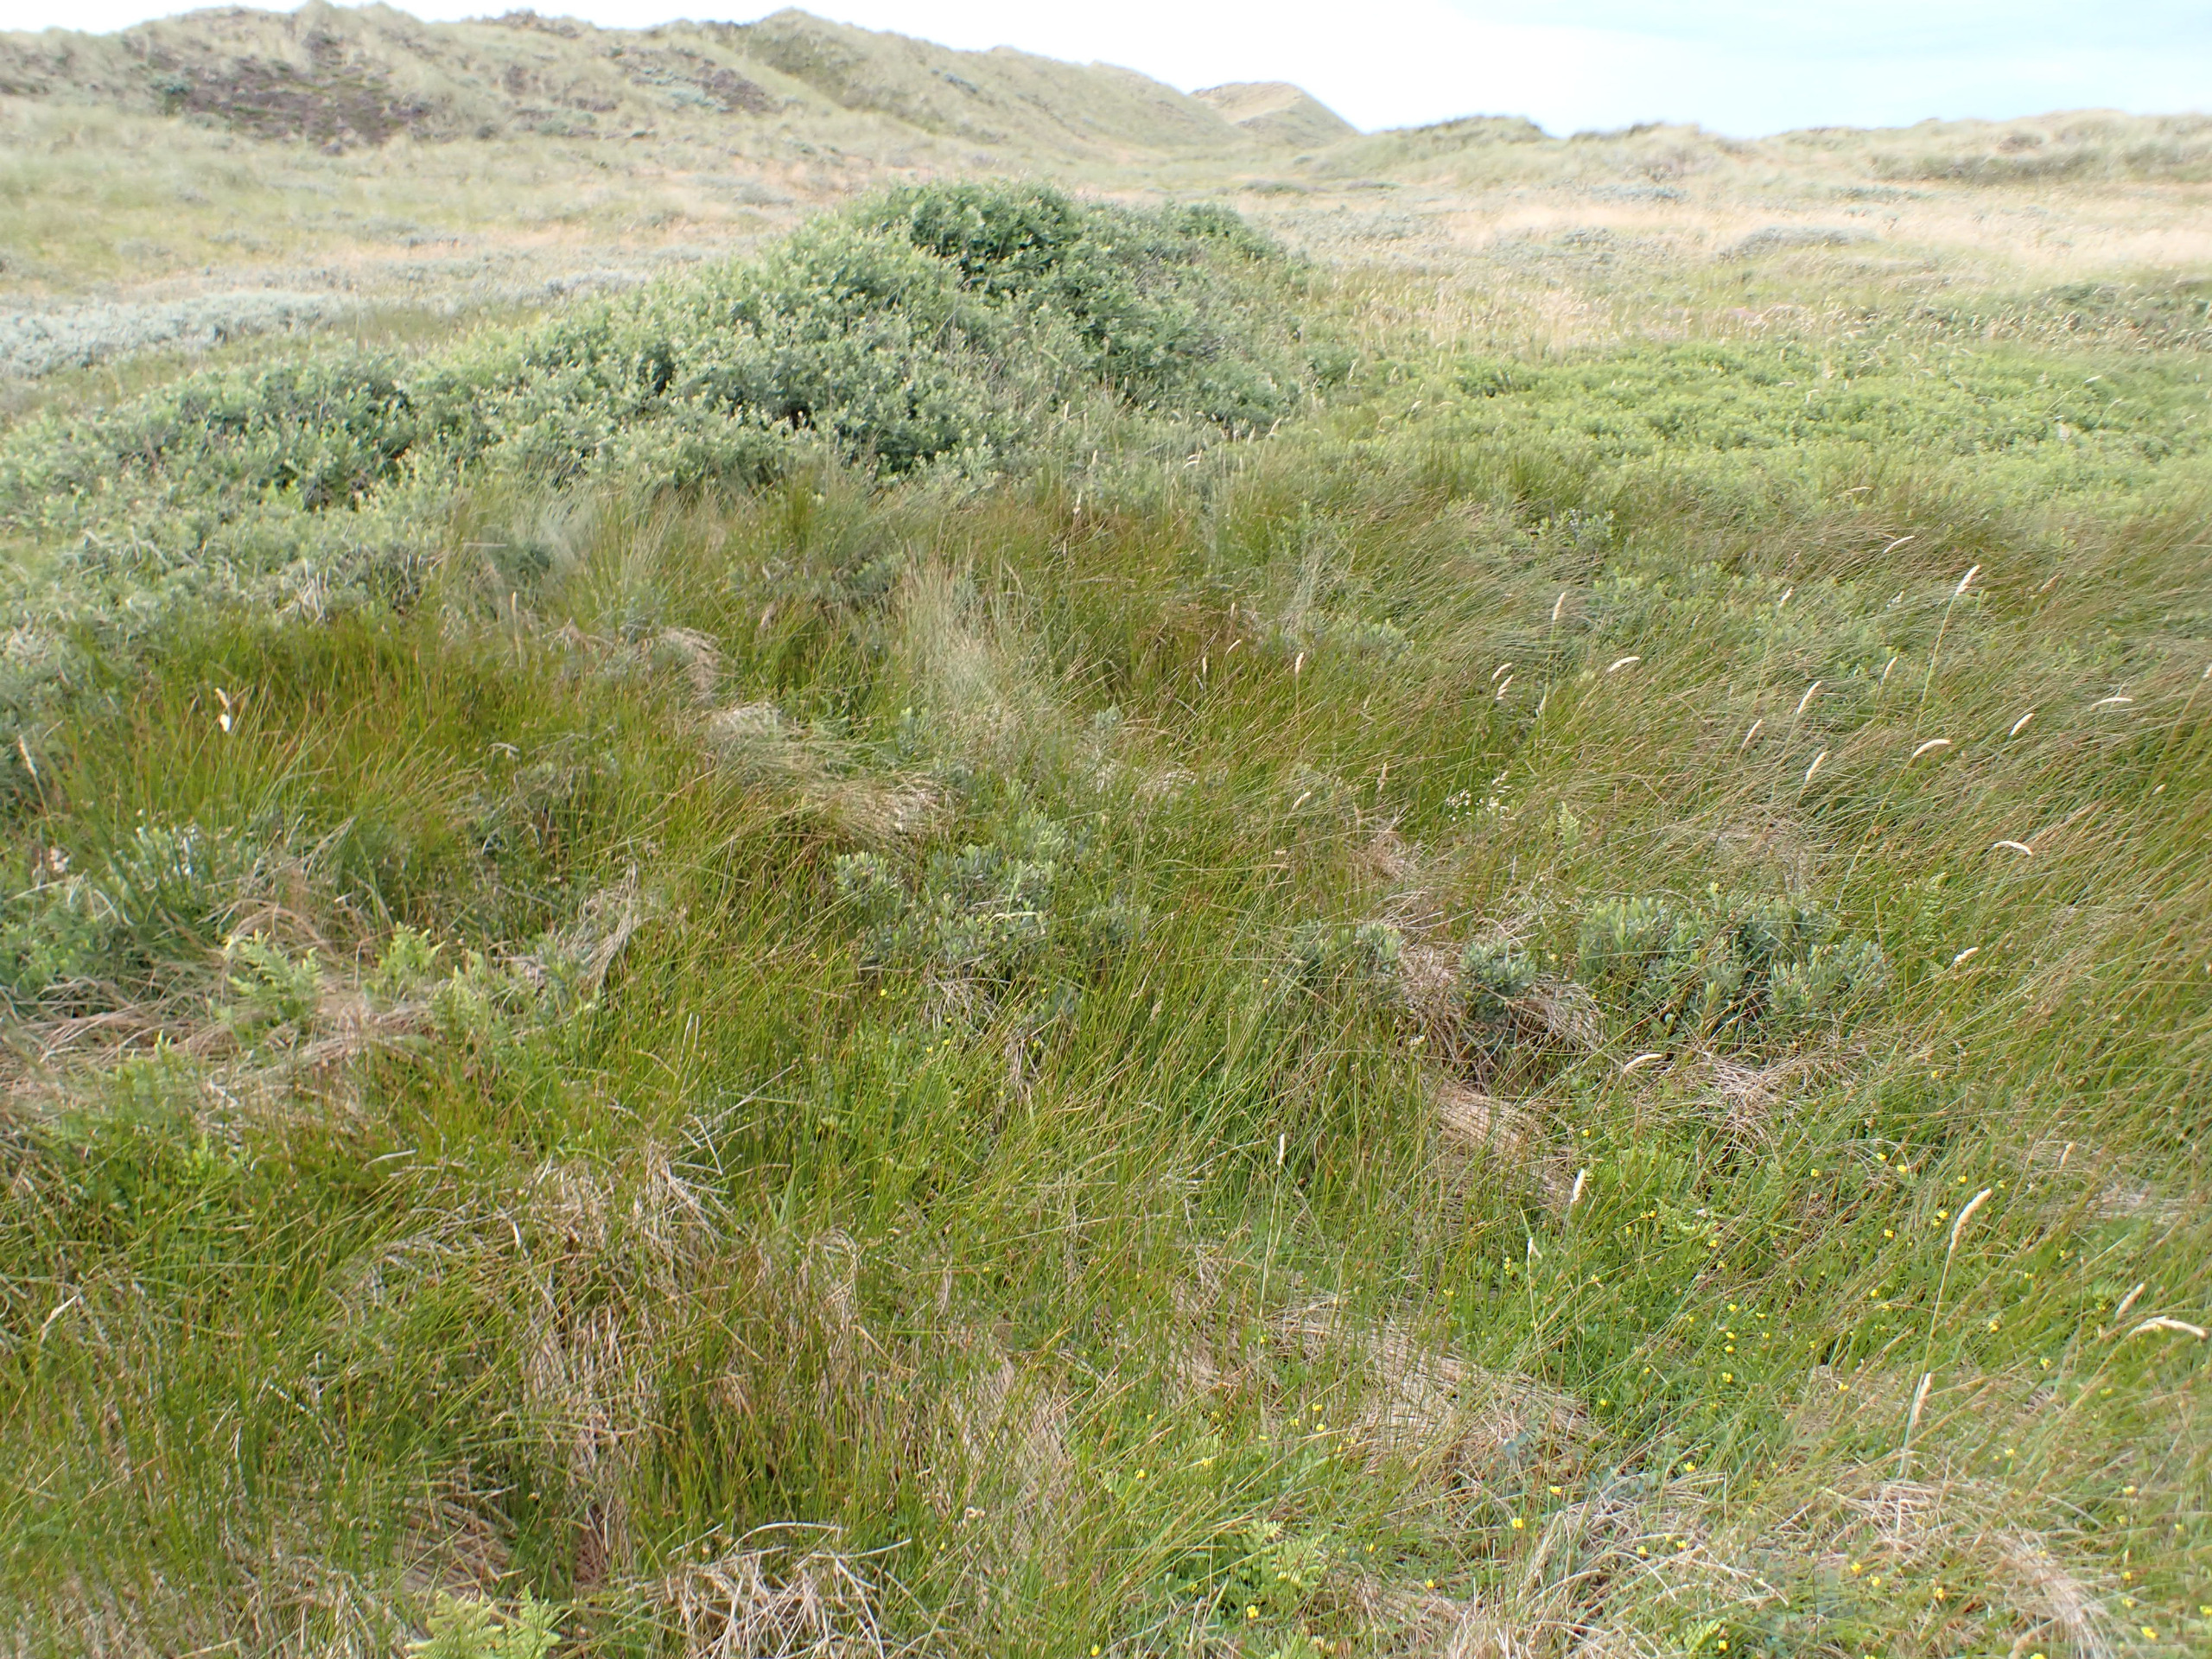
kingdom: Plantae
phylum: Tracheophyta
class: Liliopsida
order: Poales
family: Juncaceae
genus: Juncus
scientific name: Juncus
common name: Sivslægten
